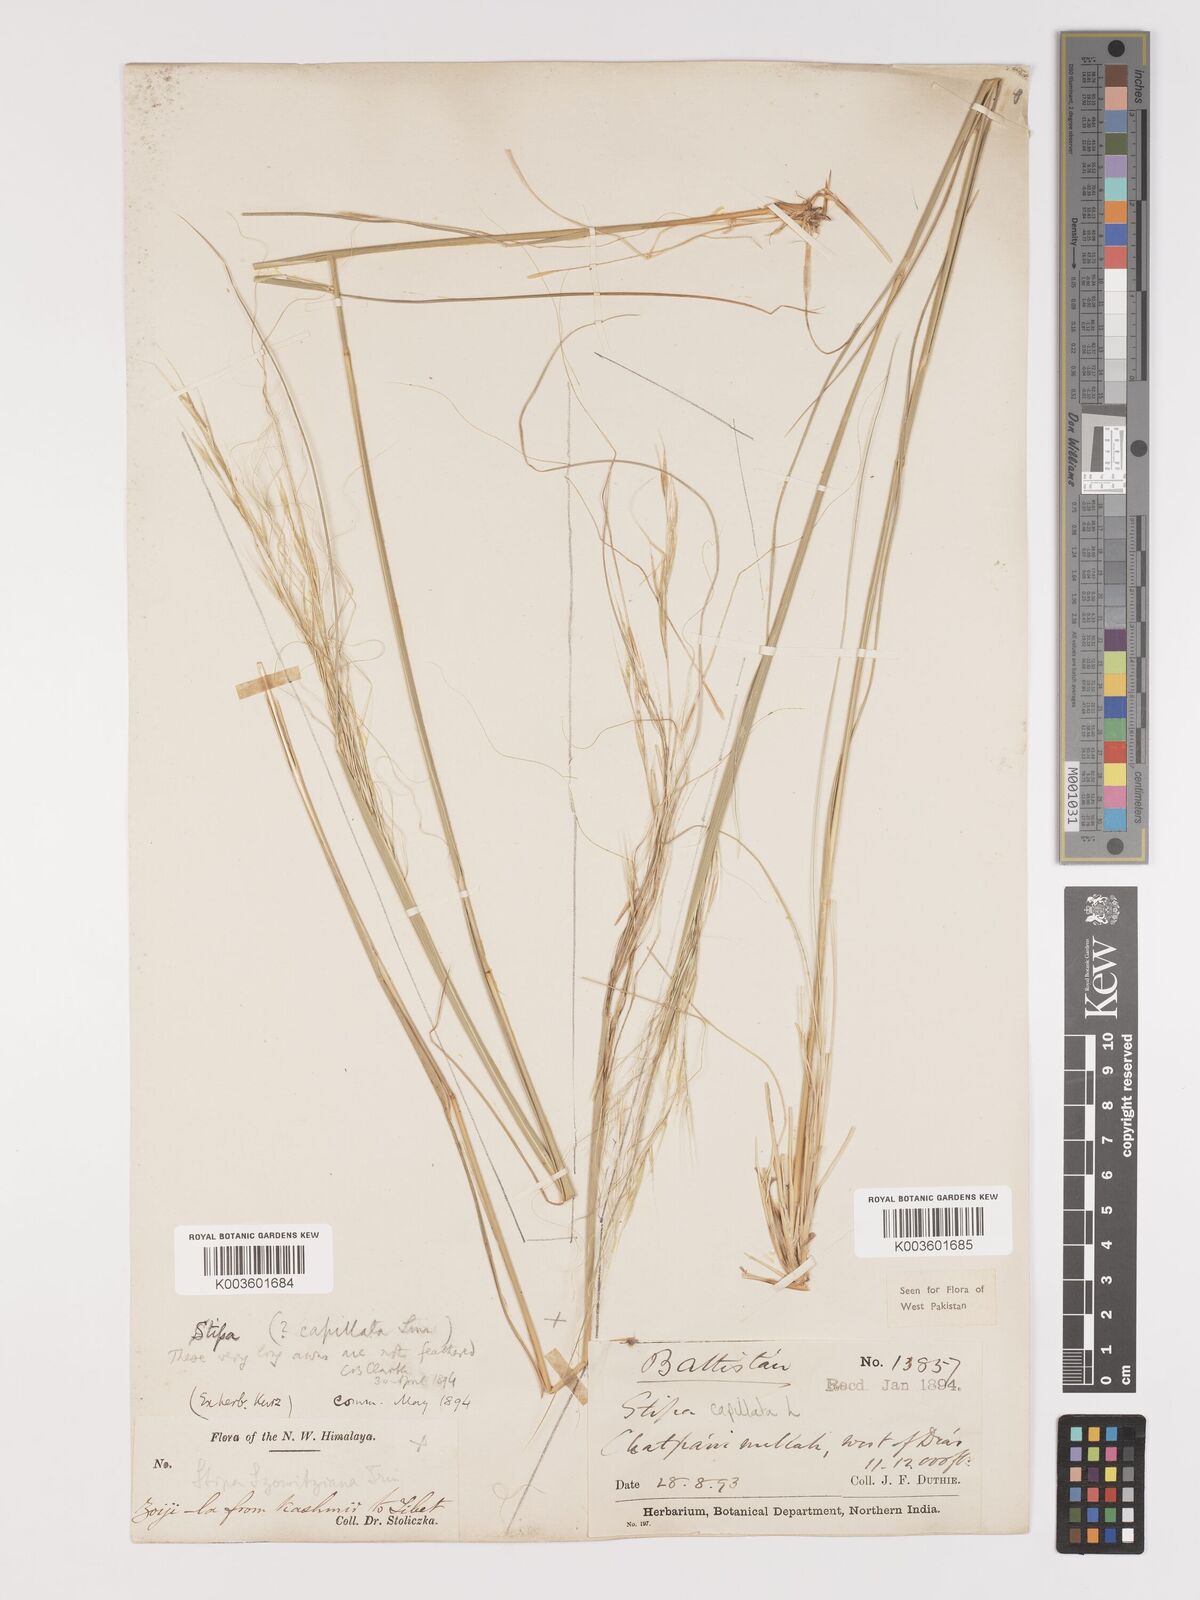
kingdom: Plantae
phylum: Tracheophyta
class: Liliopsida
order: Poales
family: Poaceae
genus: Stipa
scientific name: Stipa capillata
